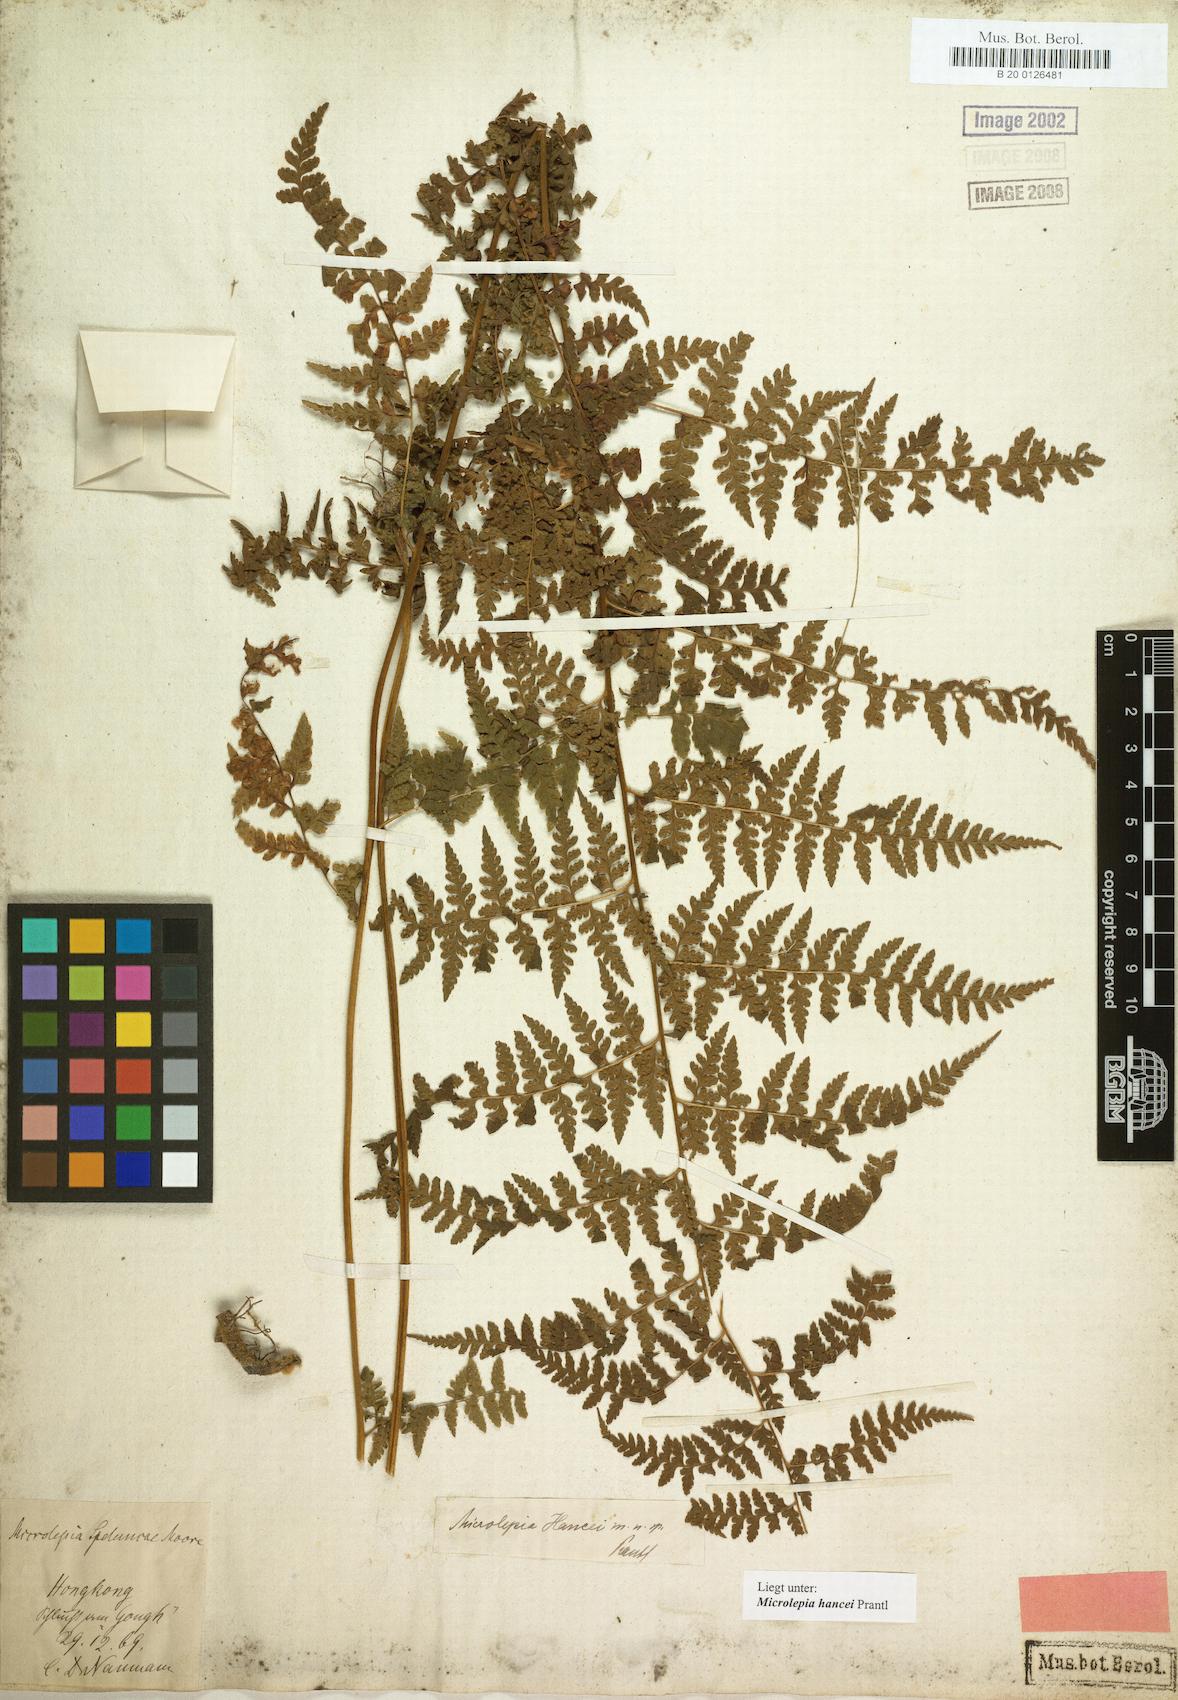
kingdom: Plantae
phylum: Tracheophyta
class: Polypodiopsida
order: Polypodiales
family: Dennstaedtiaceae
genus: Microlepia
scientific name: Microlepia nepalensis
